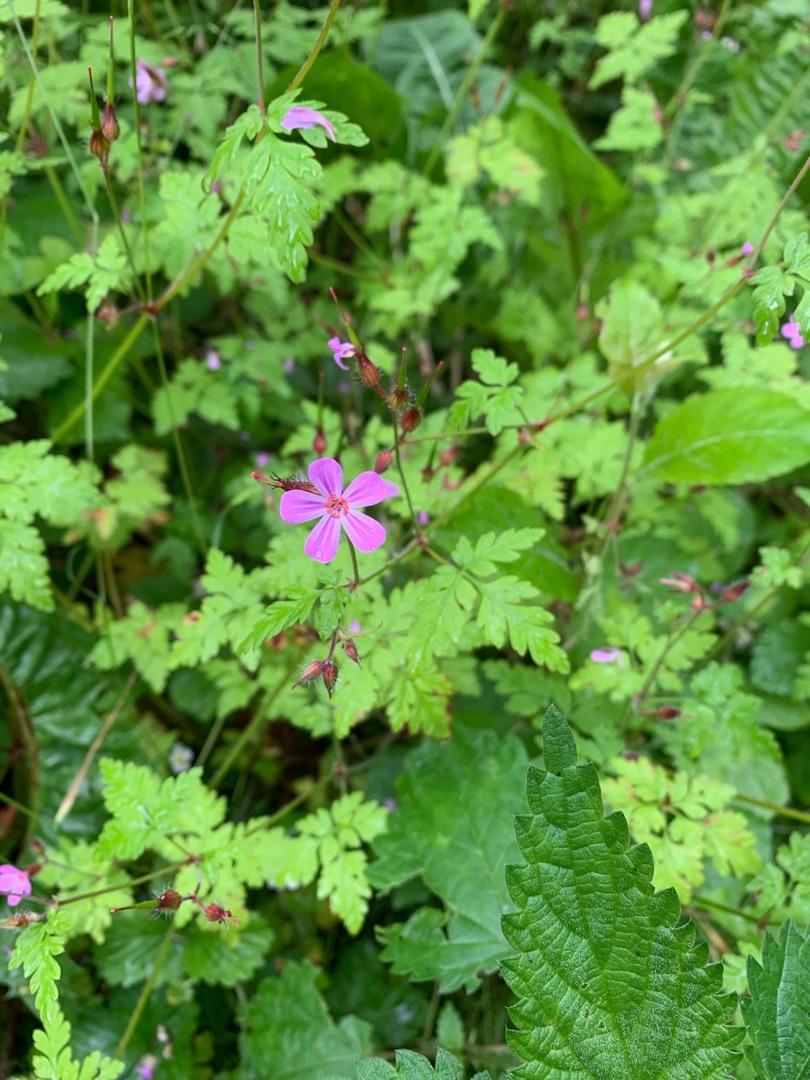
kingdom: Plantae
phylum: Tracheophyta
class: Magnoliopsida
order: Geraniales
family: Geraniaceae
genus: Geranium
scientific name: Geranium robertianum
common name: Stinkende storkenæb
